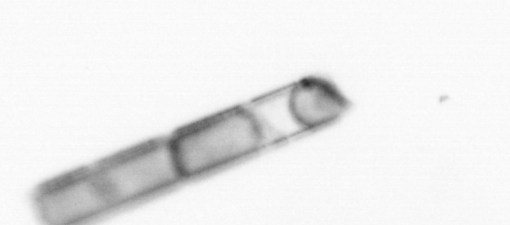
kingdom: Chromista
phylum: Ochrophyta
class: Bacillariophyceae
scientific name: Bacillariophyceae
